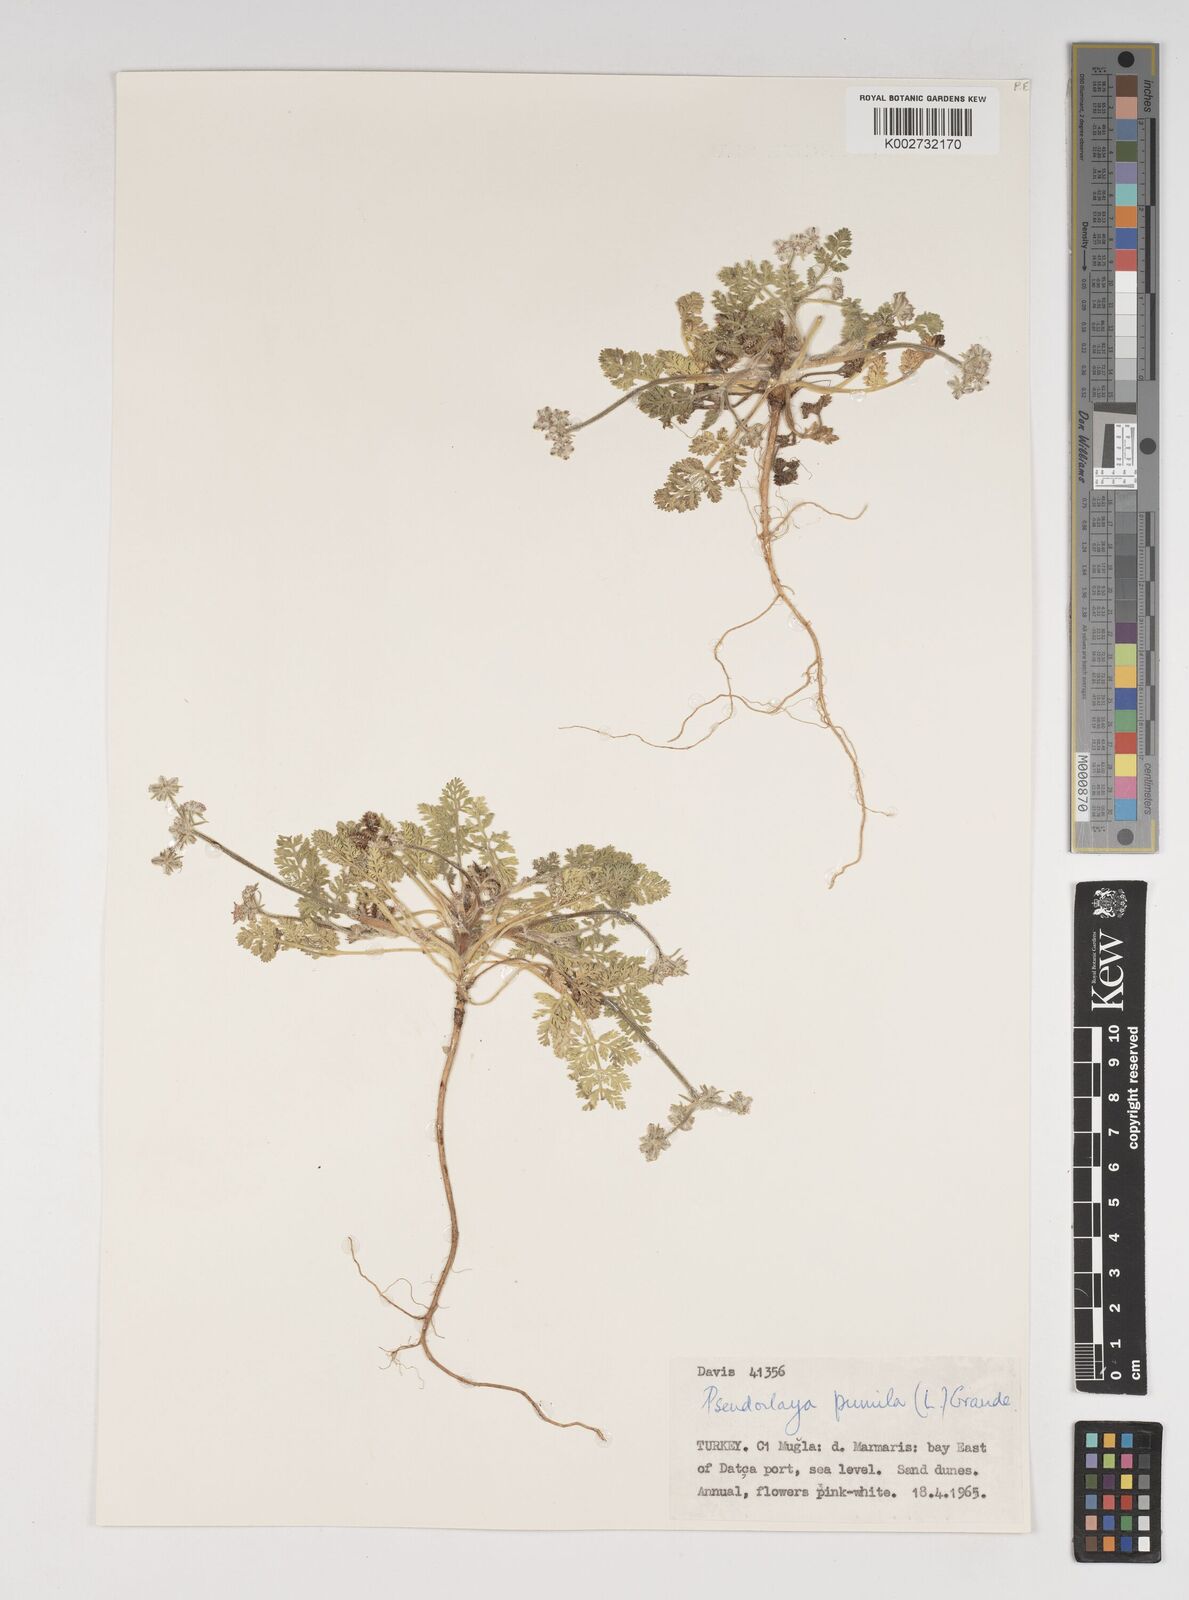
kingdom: Plantae
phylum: Tracheophyta
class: Magnoliopsida
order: Apiales
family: Apiaceae
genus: Daucus
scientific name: Daucus pumilus
